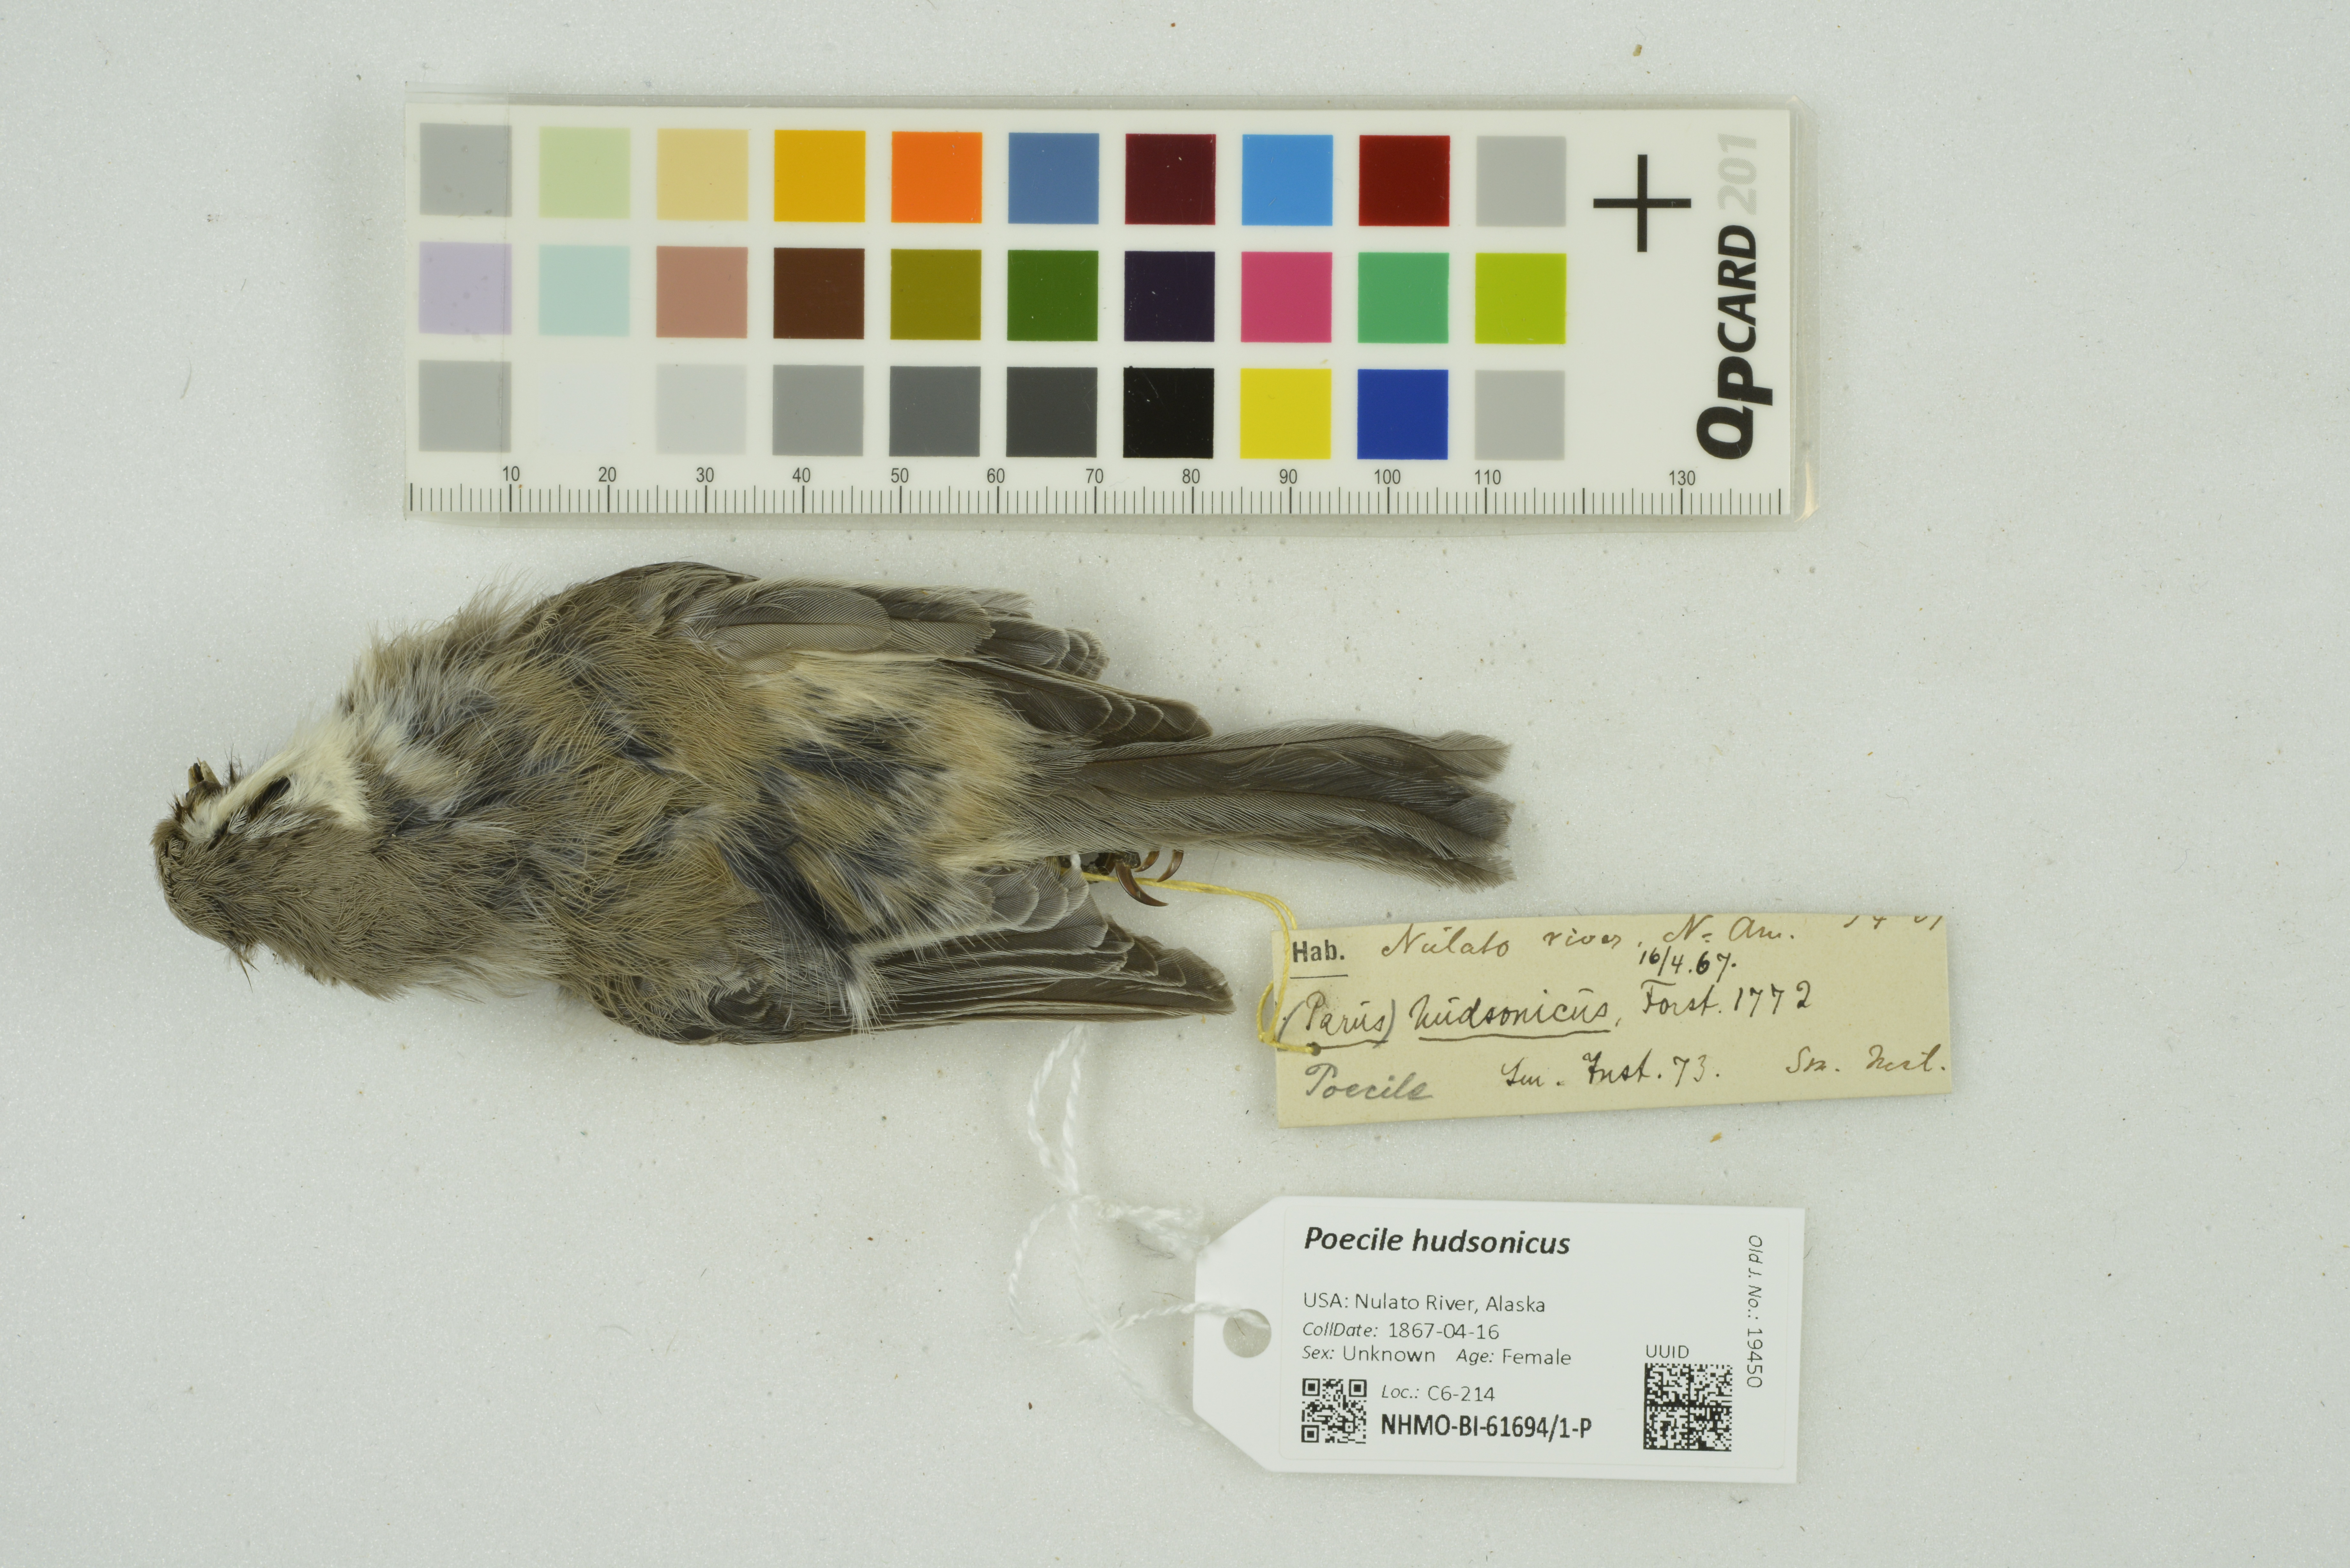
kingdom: Animalia
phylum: Chordata
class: Aves
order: Passeriformes
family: Paridae
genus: Poecile
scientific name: Poecile hudsonicus
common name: Boreal chickadee
